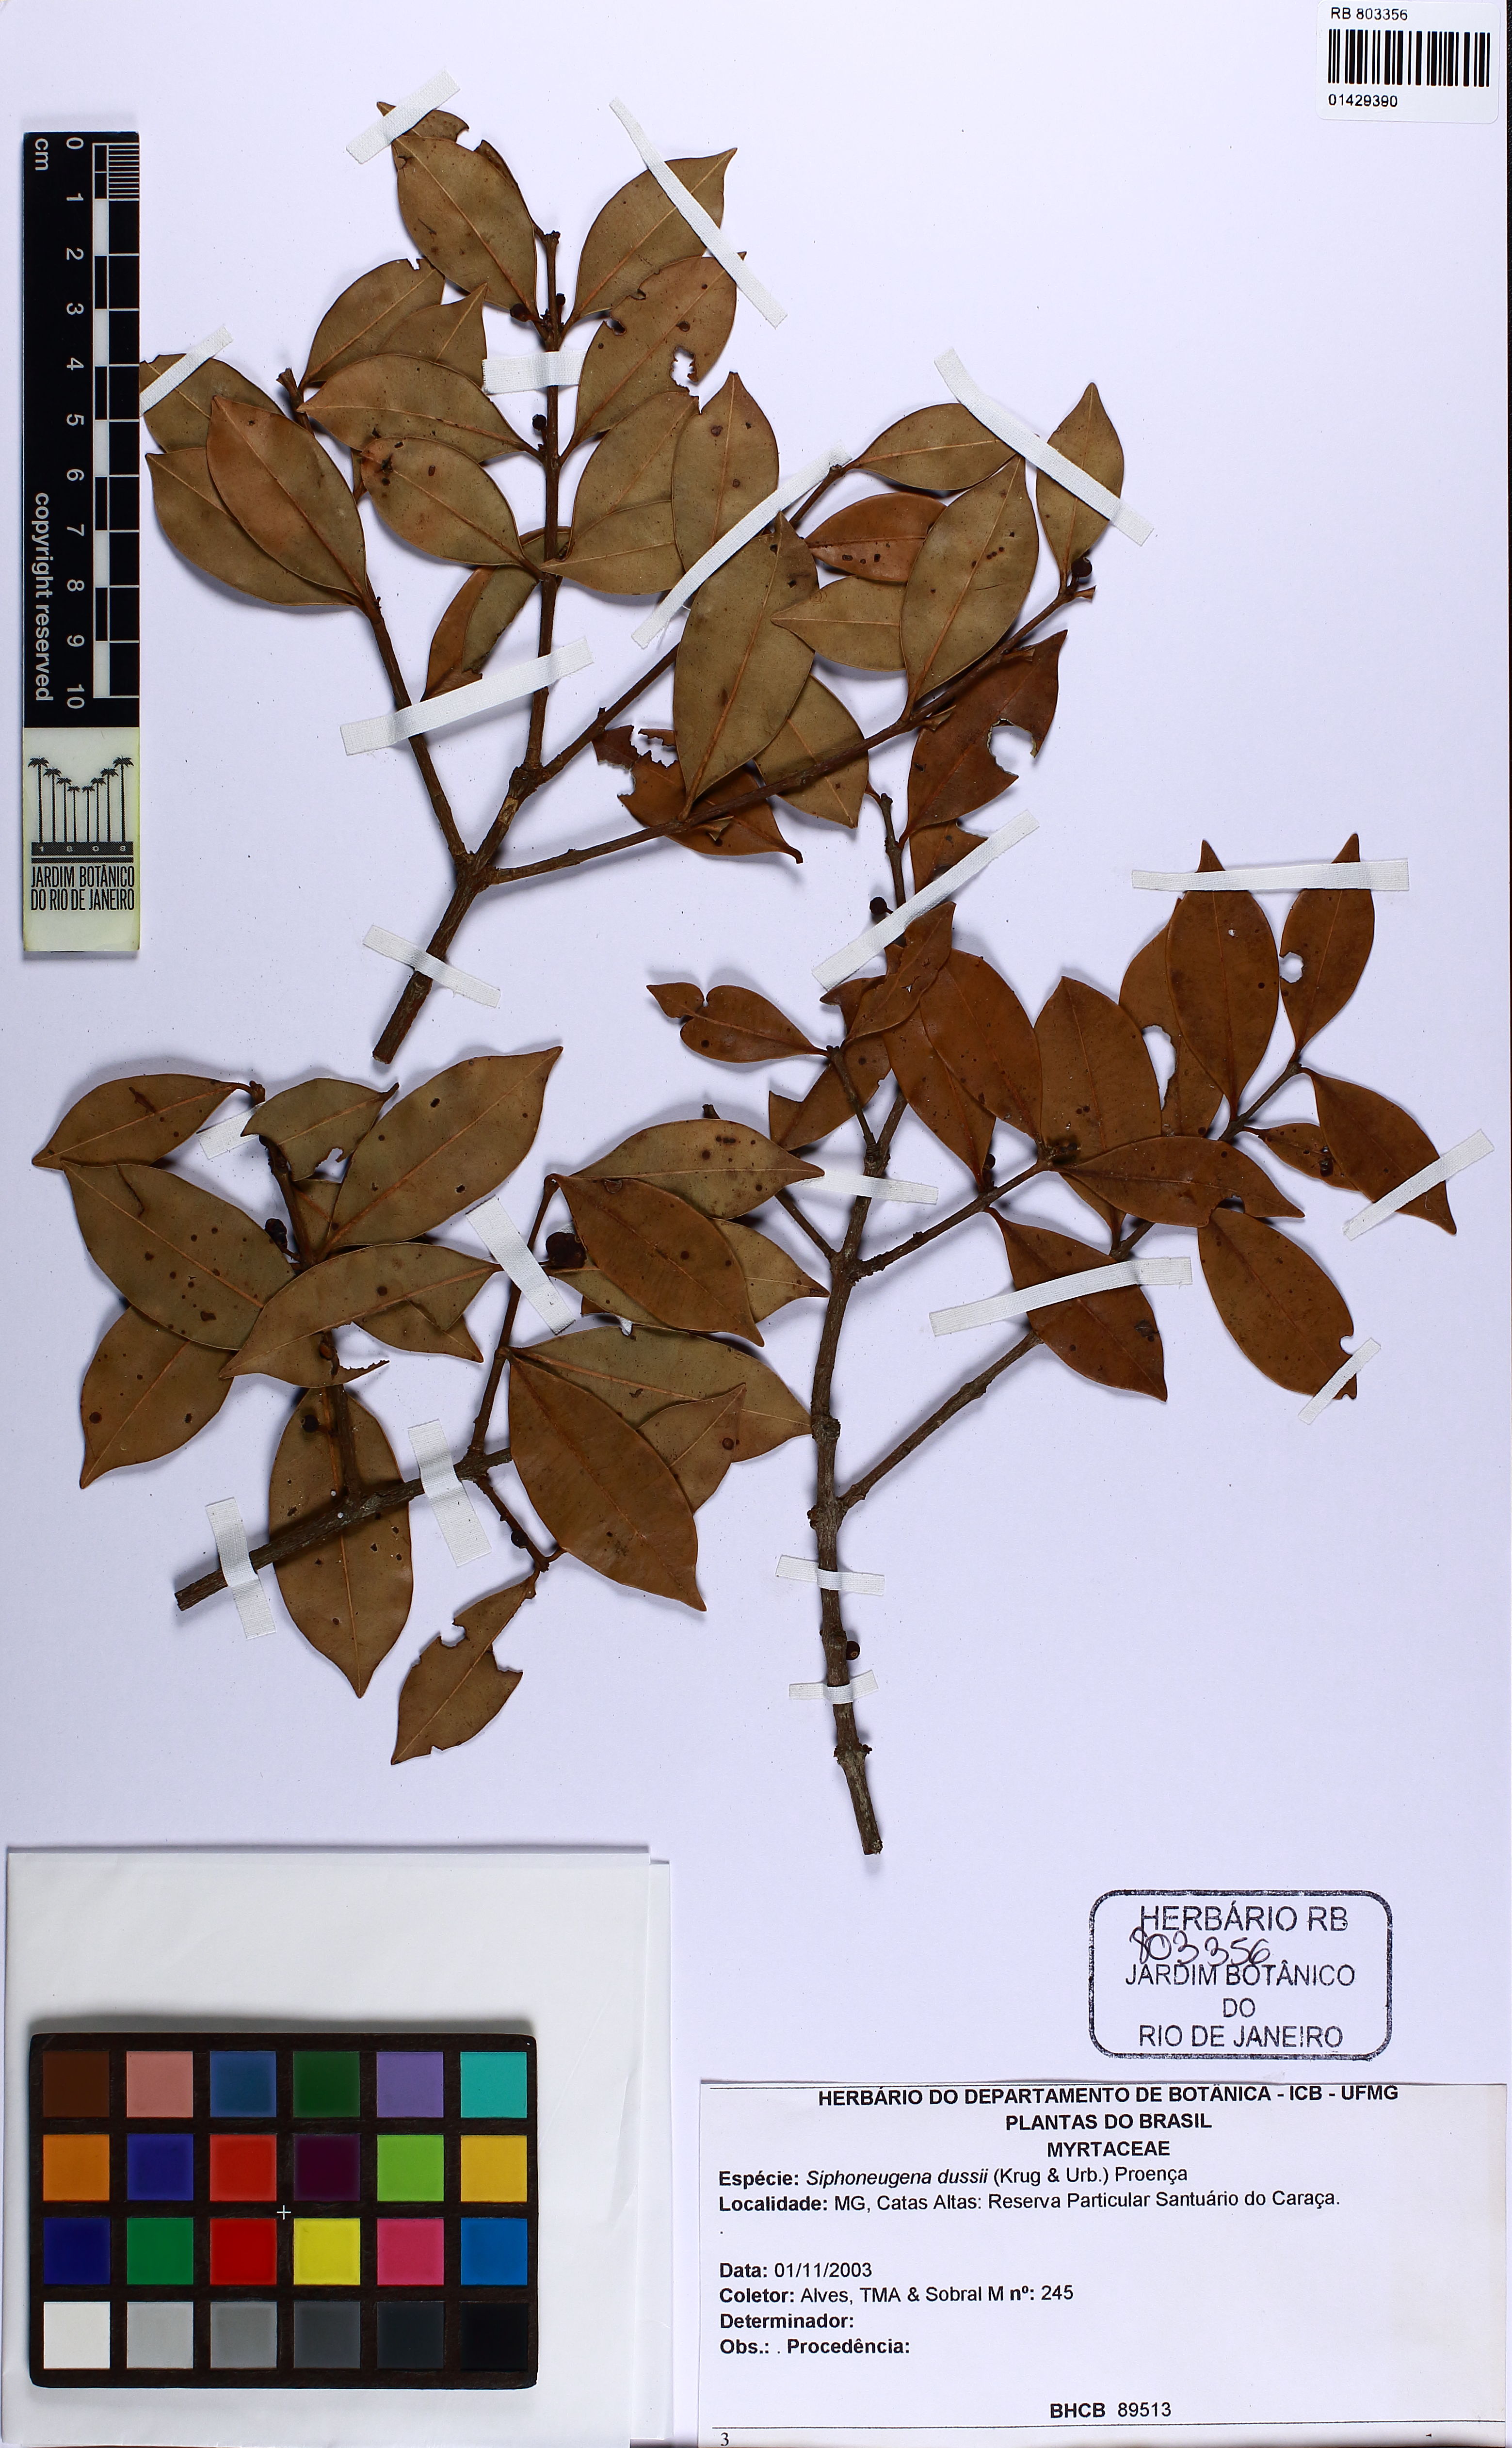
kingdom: Plantae
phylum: Tracheophyta
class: Magnoliopsida
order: Myrtales
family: Myrtaceae
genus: Siphoneugena
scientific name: Siphoneugena dussii
